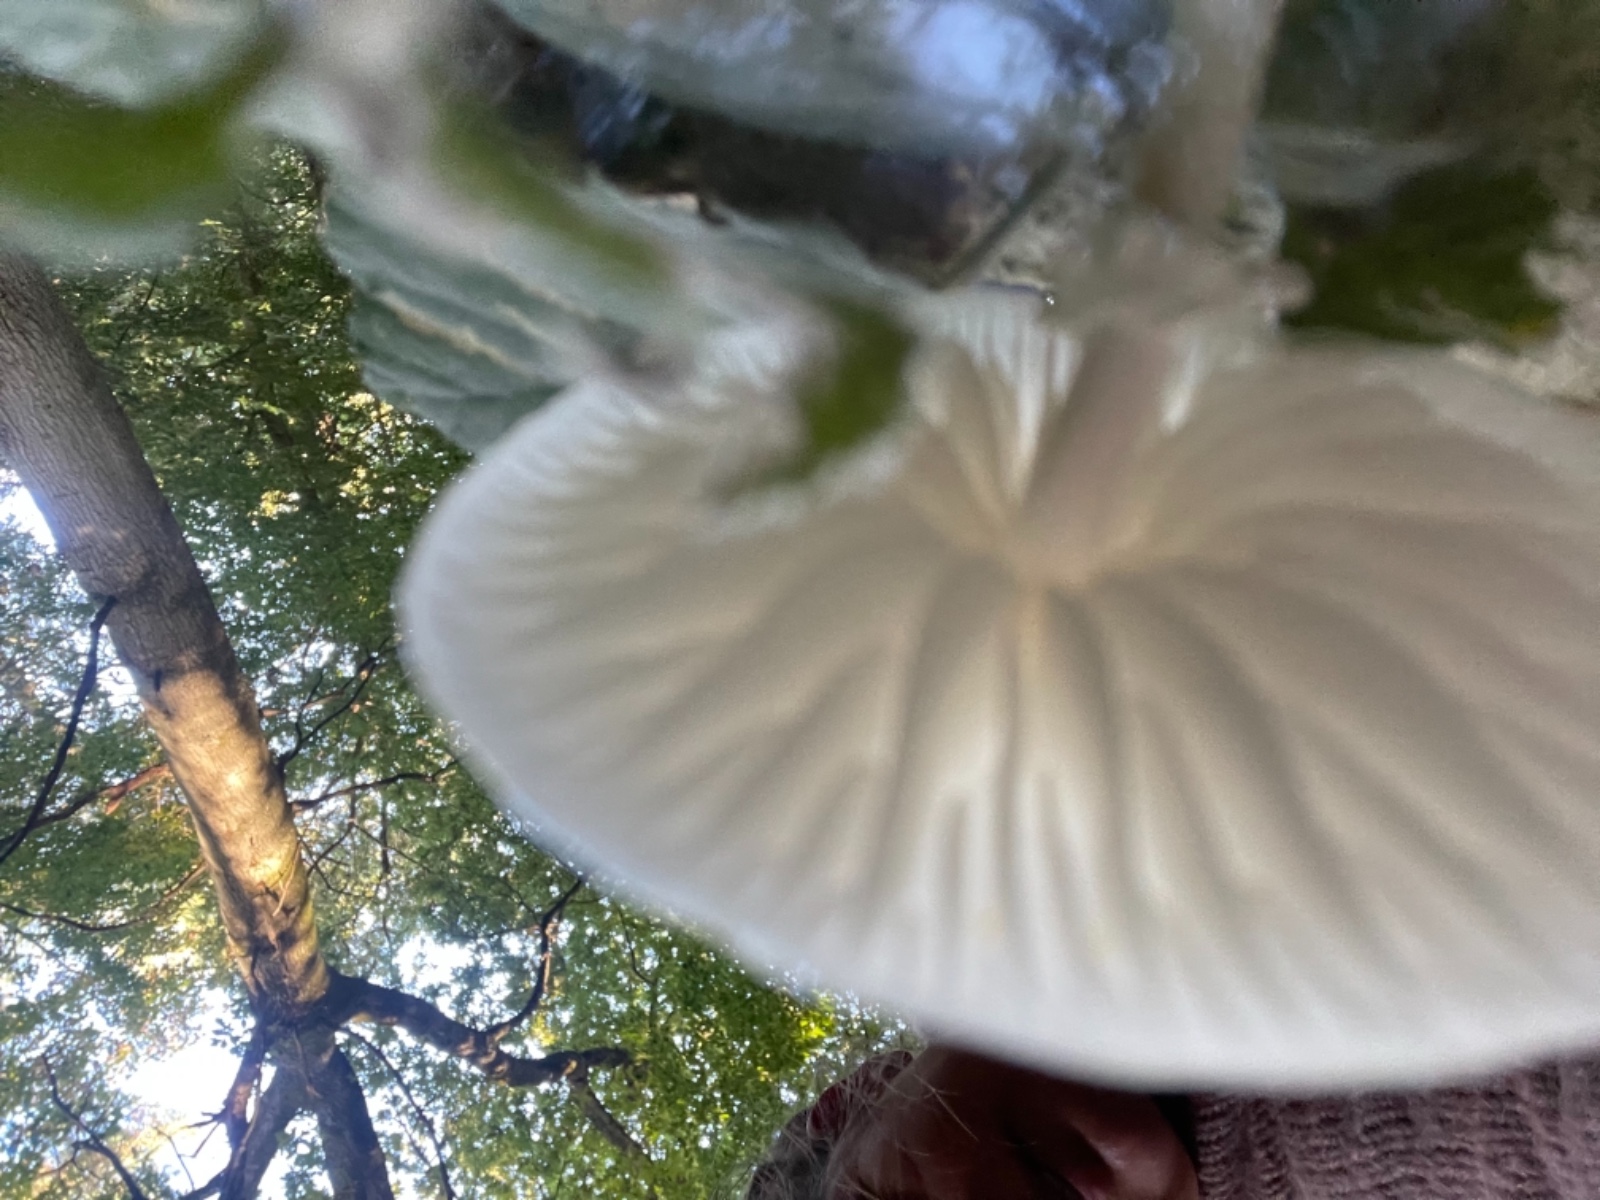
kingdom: Fungi
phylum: Basidiomycota
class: Agaricomycetes
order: Agaricales
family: Physalacriaceae
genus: Mucidula
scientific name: Mucidula mucida
